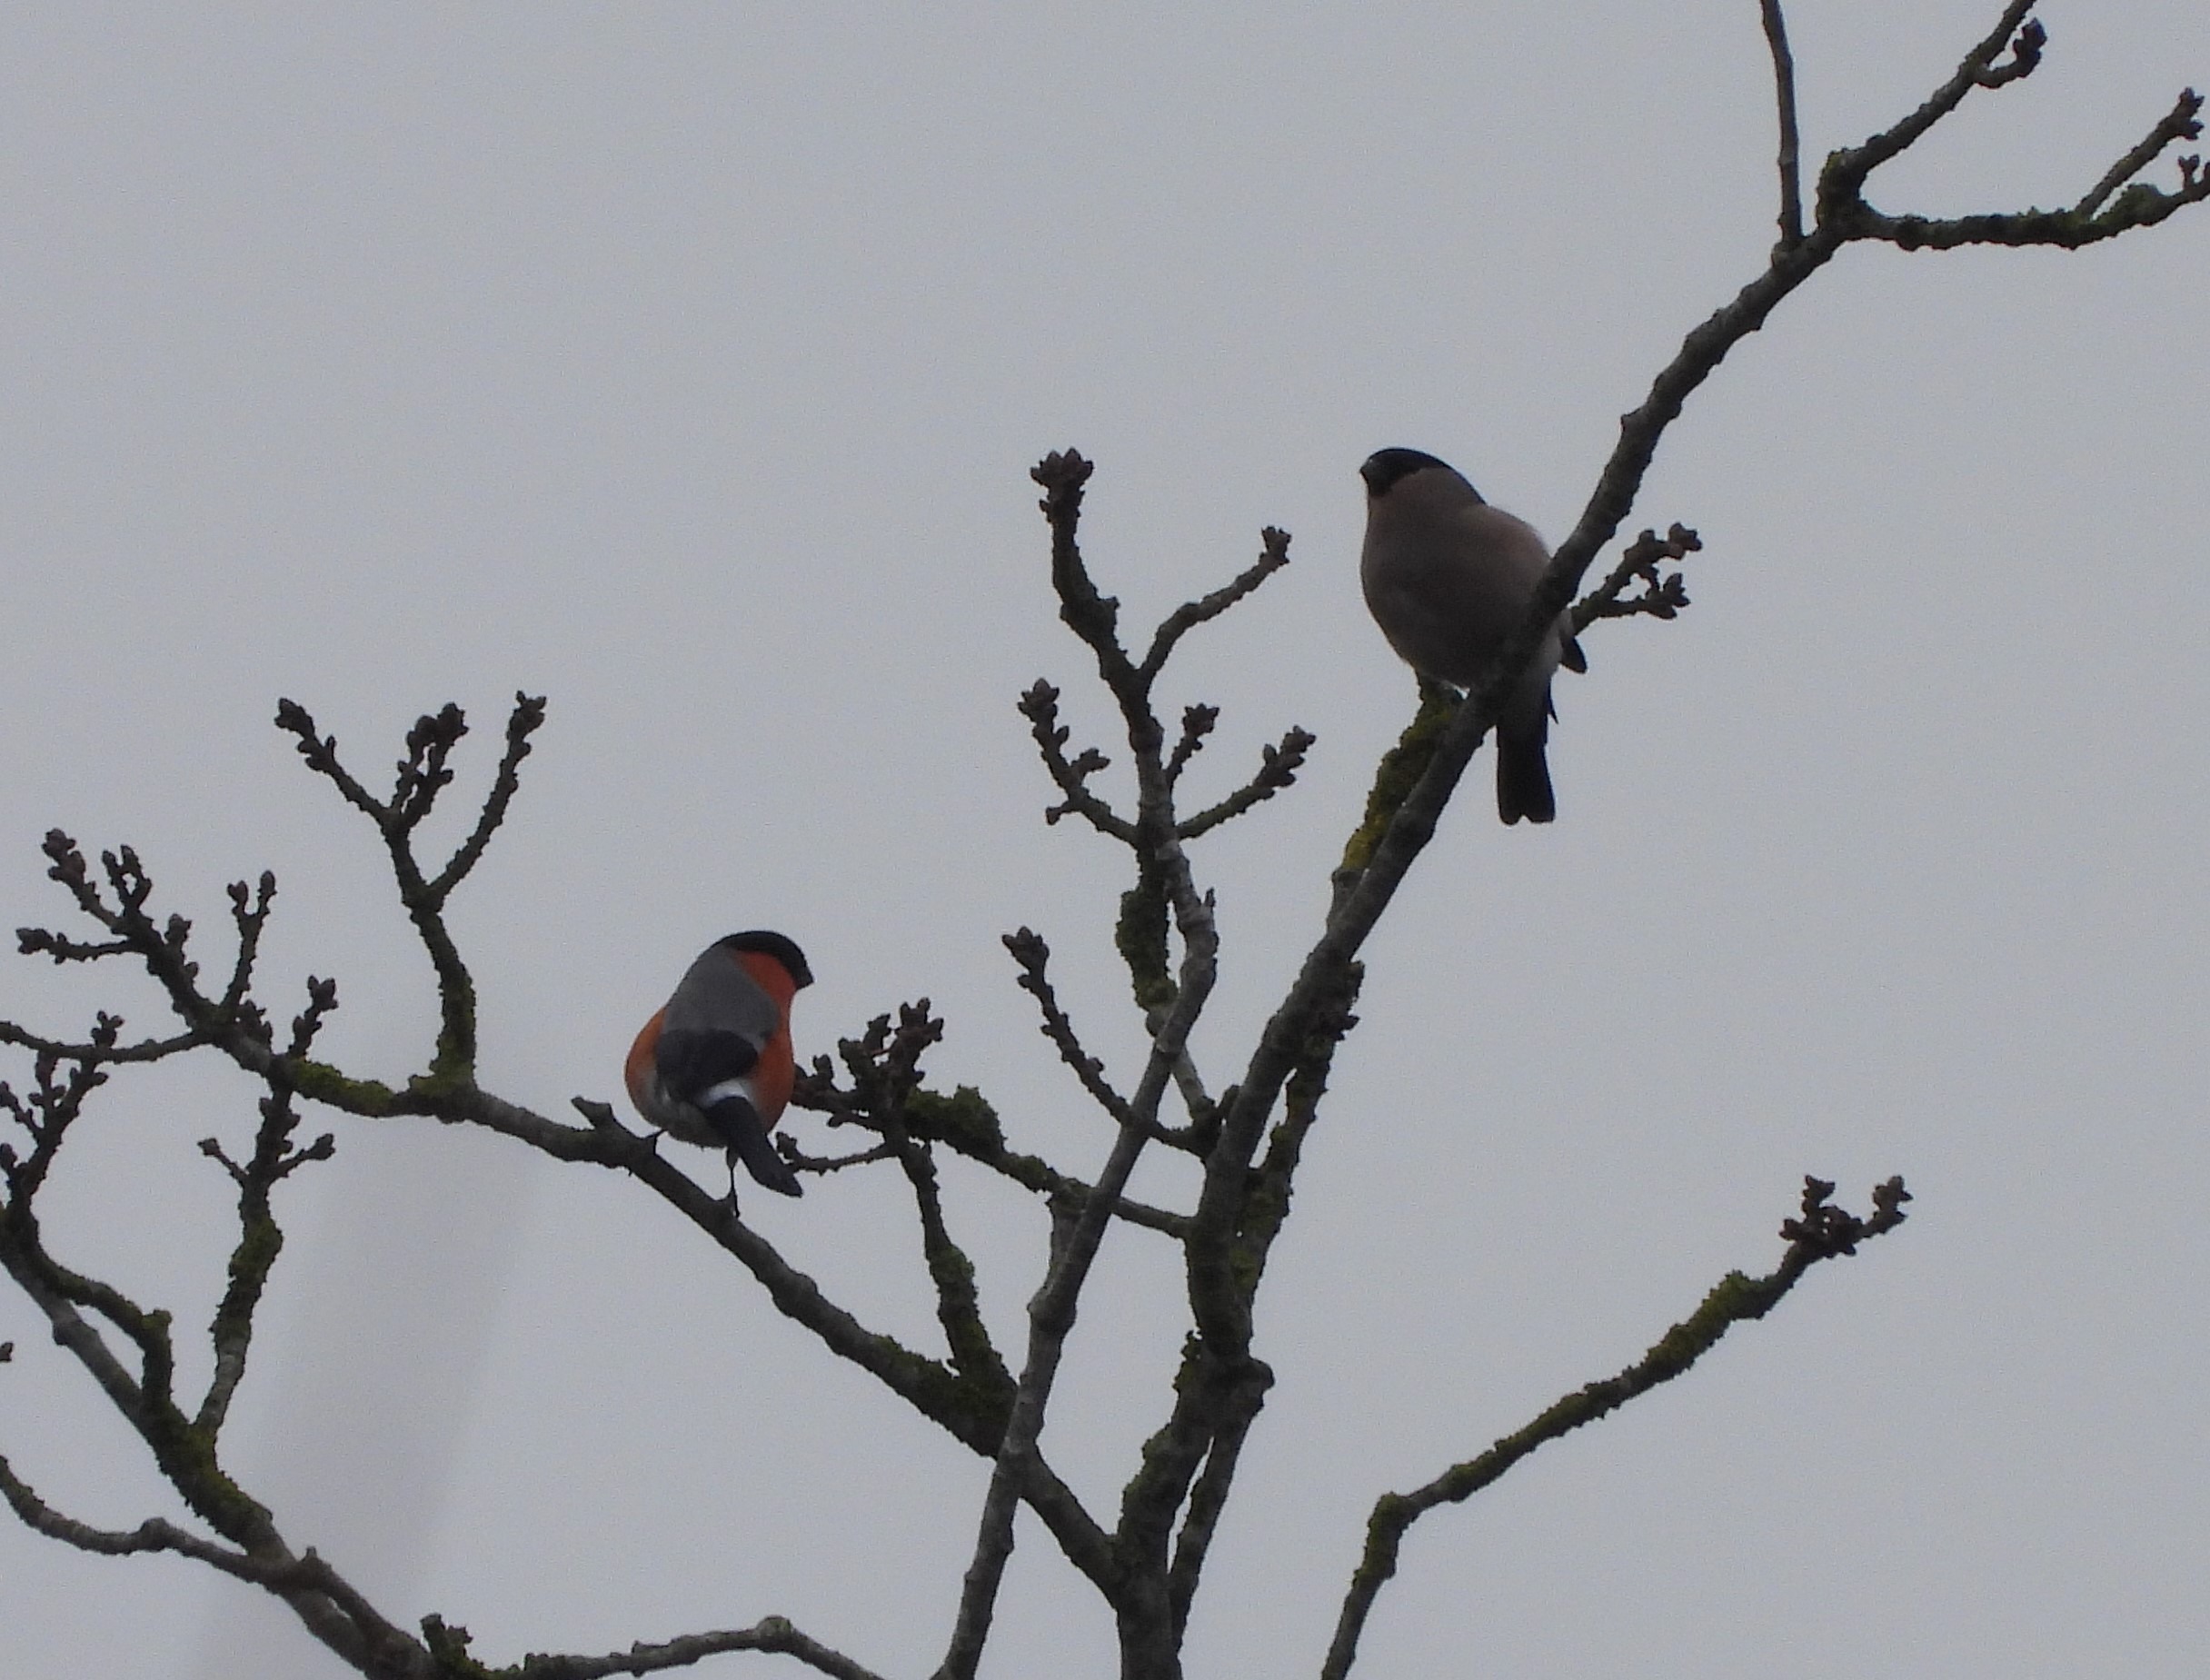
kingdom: Animalia
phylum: Chordata
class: Aves
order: Passeriformes
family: Fringillidae
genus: Pyrrhula
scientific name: Pyrrhula pyrrhula
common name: Dompap
